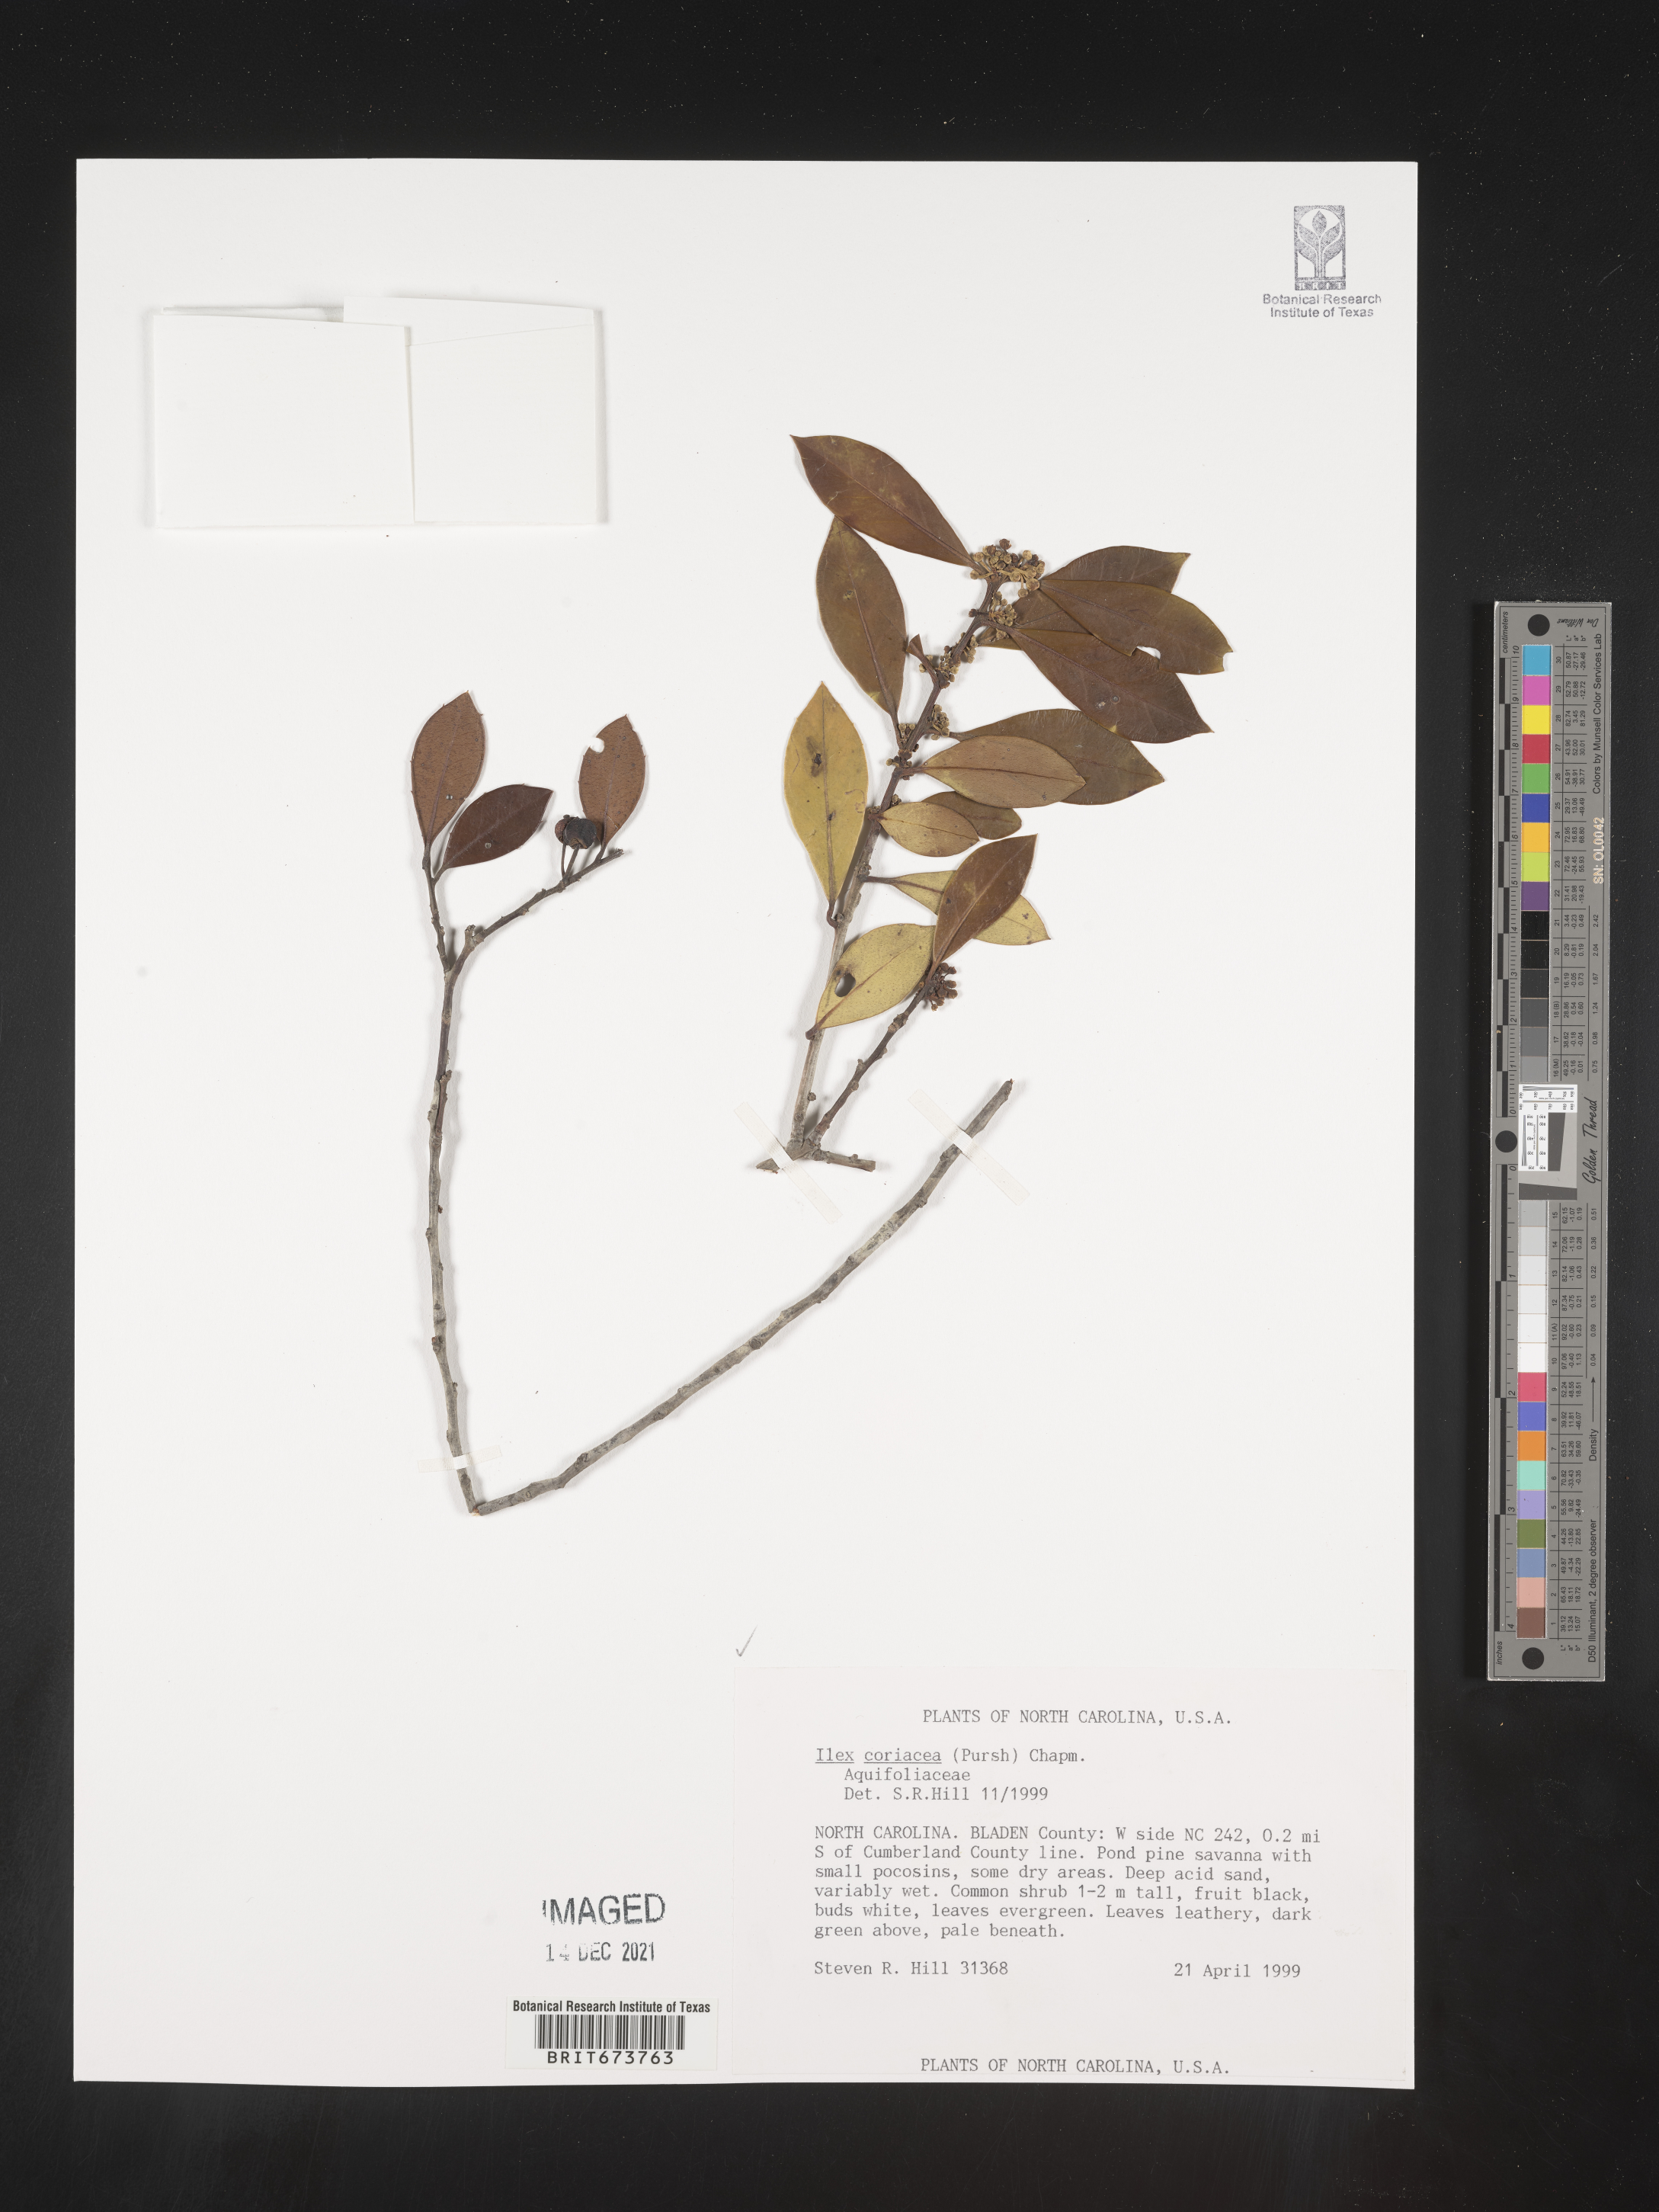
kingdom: Plantae
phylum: Tracheophyta
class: Magnoliopsida
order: Aquifoliales
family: Aquifoliaceae
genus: Ilex
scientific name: Ilex coriacea
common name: Sweet gallberry
